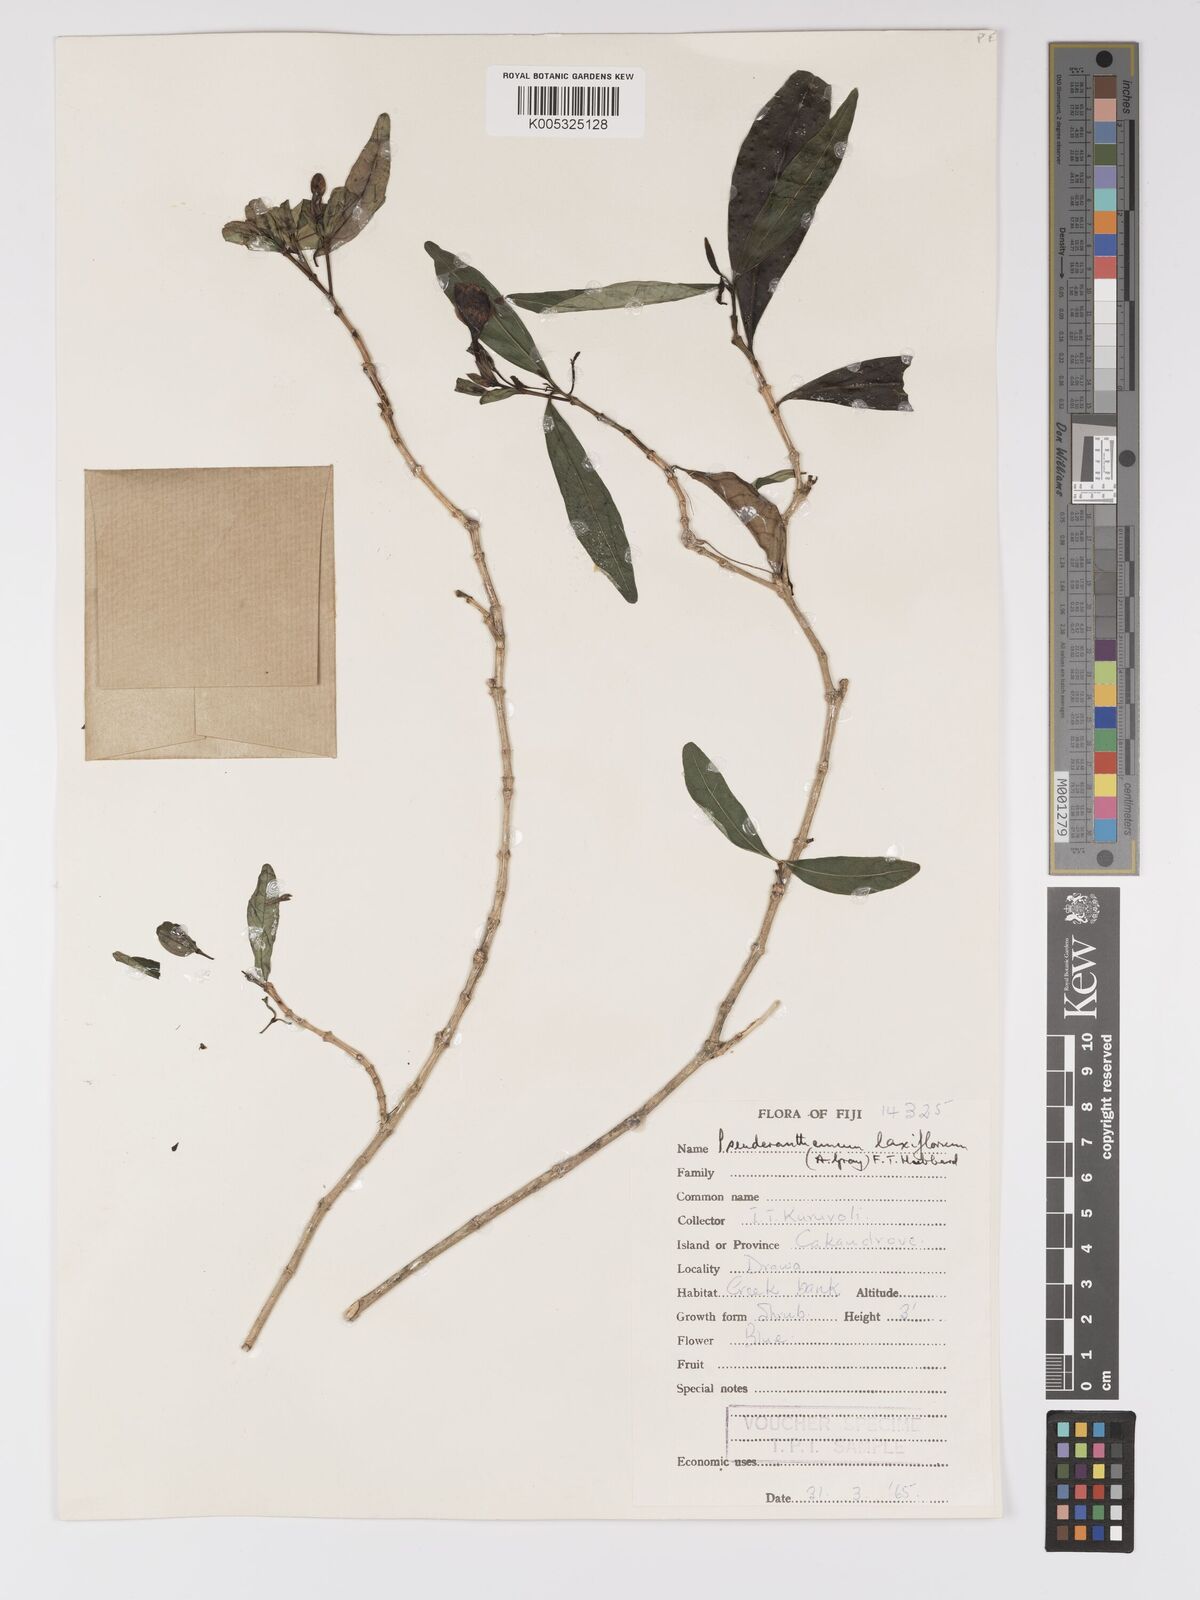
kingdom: Plantae
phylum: Tracheophyta
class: Magnoliopsida
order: Lamiales
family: Acanthaceae
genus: Pseuderanthemum
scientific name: Pseuderanthemum laxiflorum
